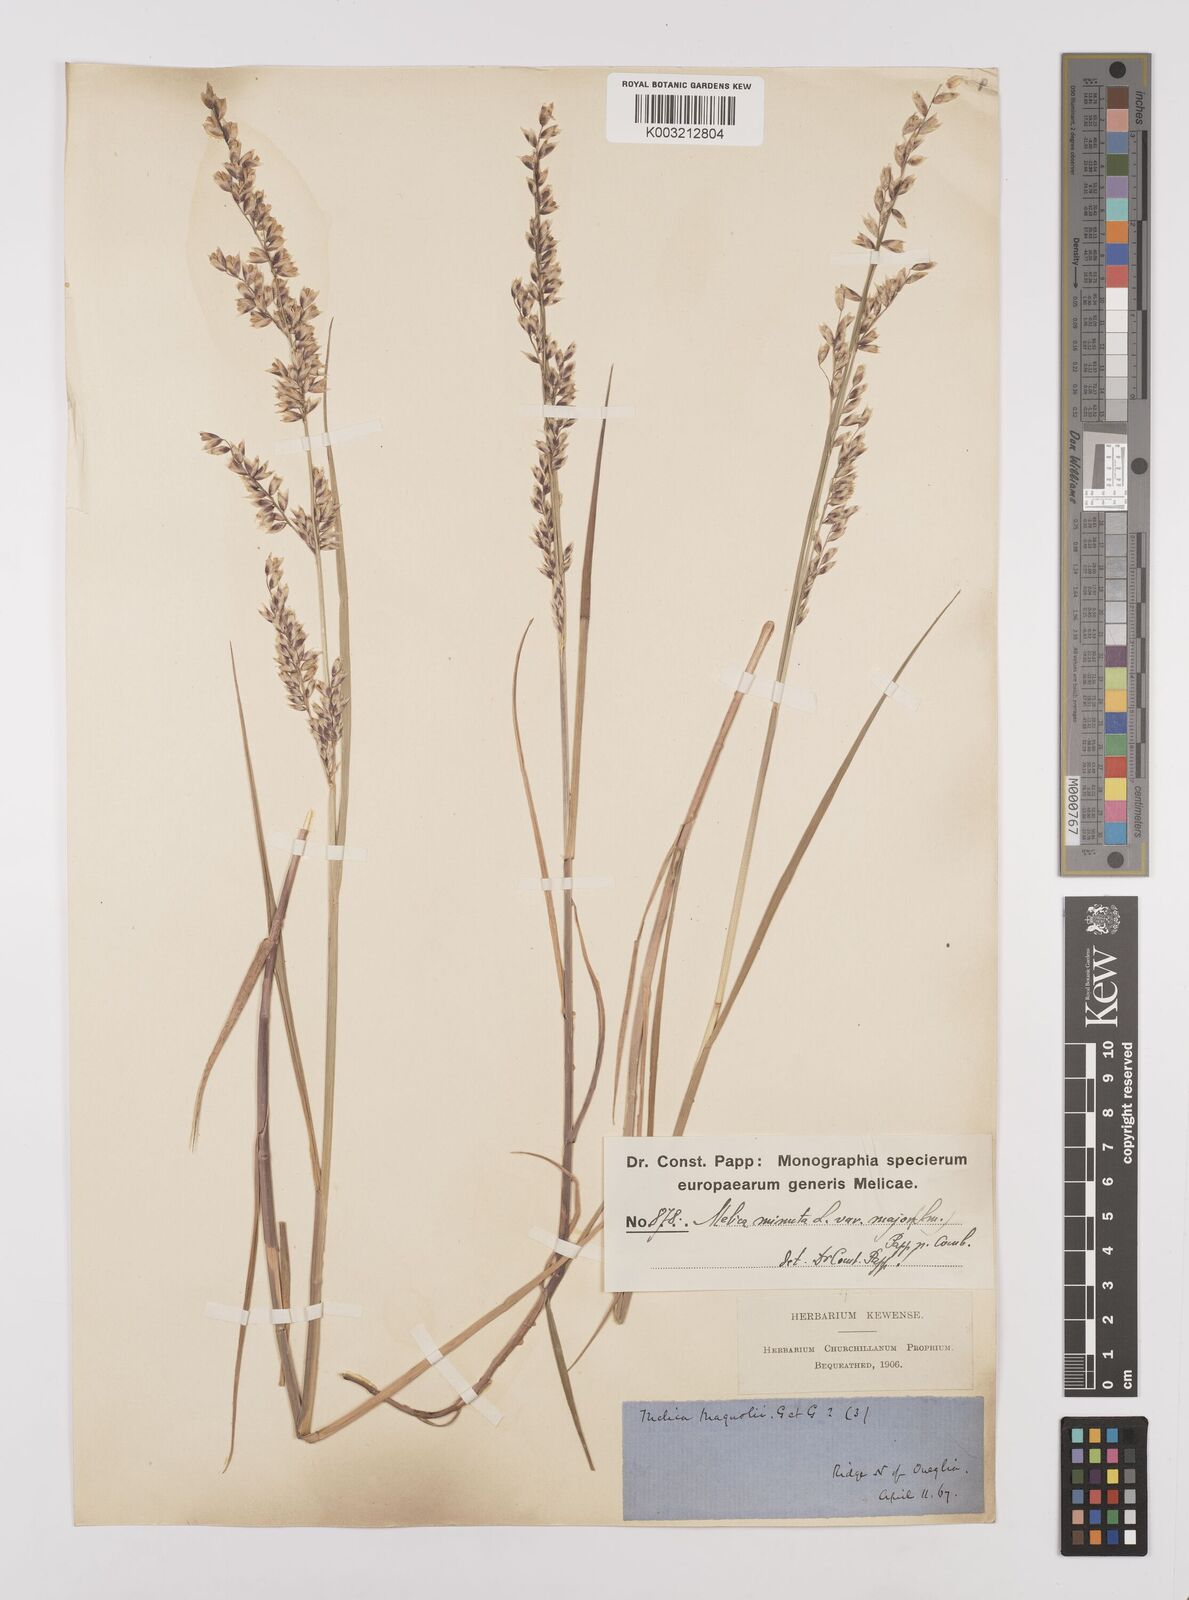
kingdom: Plantae
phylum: Tracheophyta
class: Liliopsida
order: Poales
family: Poaceae
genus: Melica
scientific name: Melica minuta
